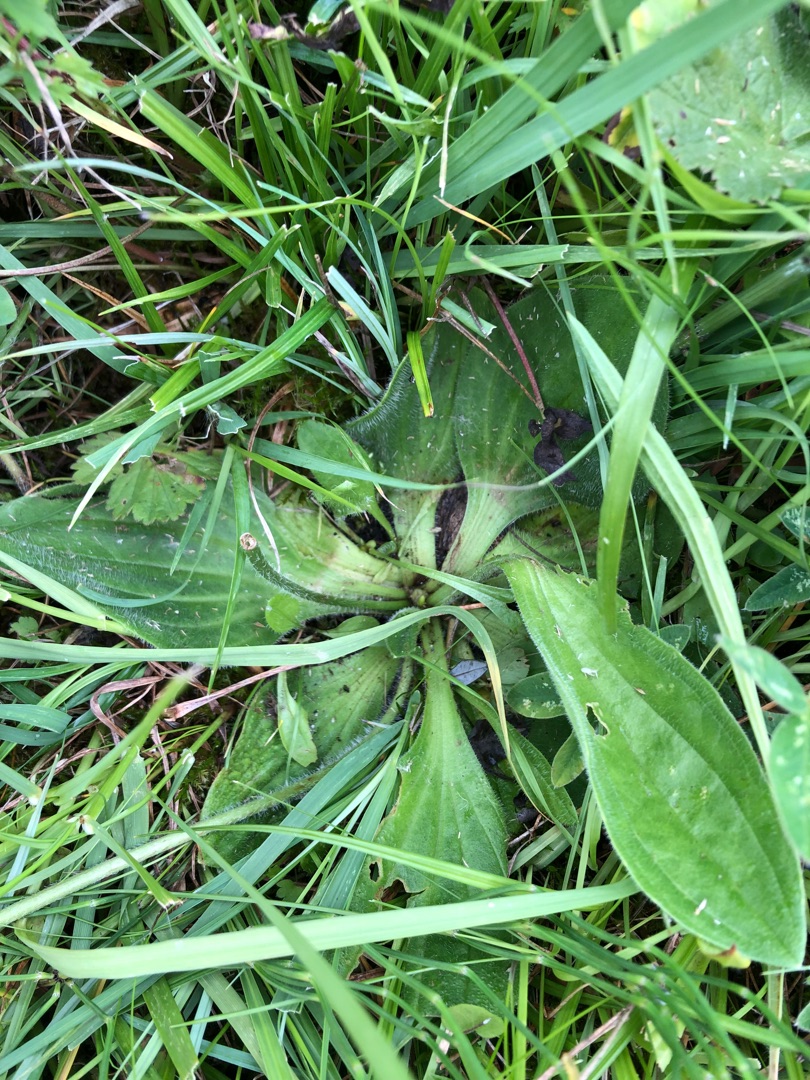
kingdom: Plantae
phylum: Tracheophyta
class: Magnoliopsida
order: Lamiales
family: Plantaginaceae
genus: Plantago
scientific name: Plantago uliginosa
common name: Eng-vejbred
